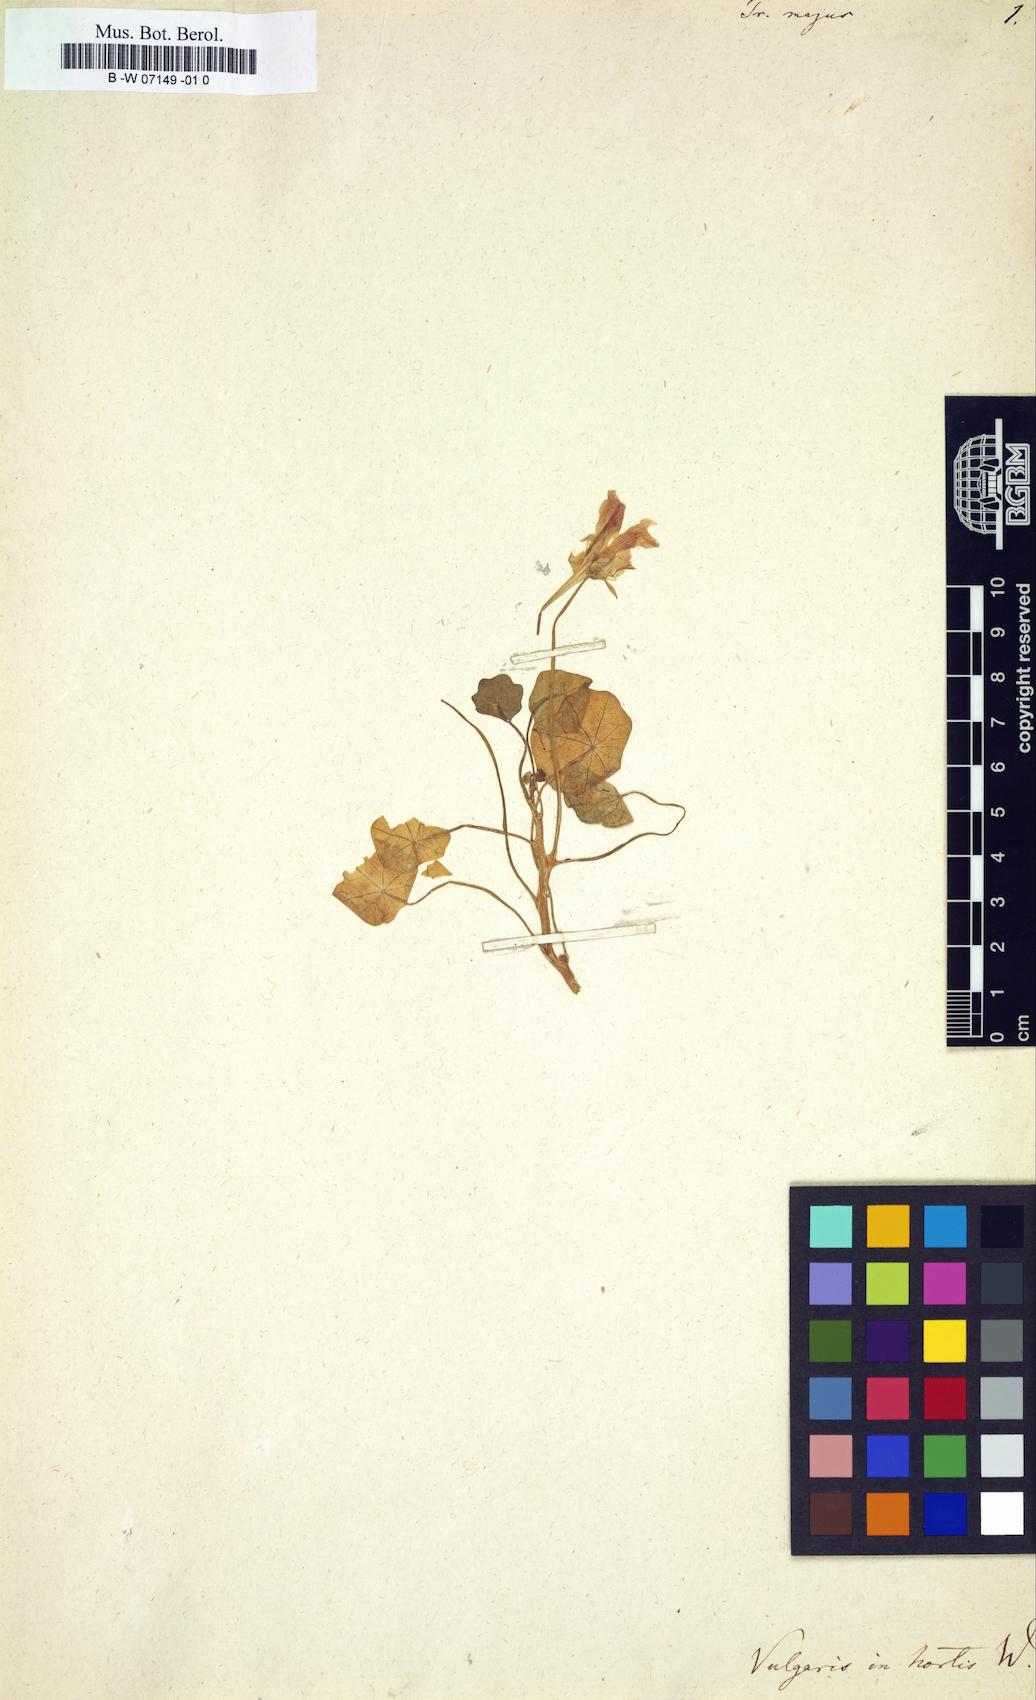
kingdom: Plantae
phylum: Tracheophyta
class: Magnoliopsida
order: Brassicales
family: Tropaeolaceae
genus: Tropaeolum
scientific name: Tropaeolum majus
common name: Nasturtium
